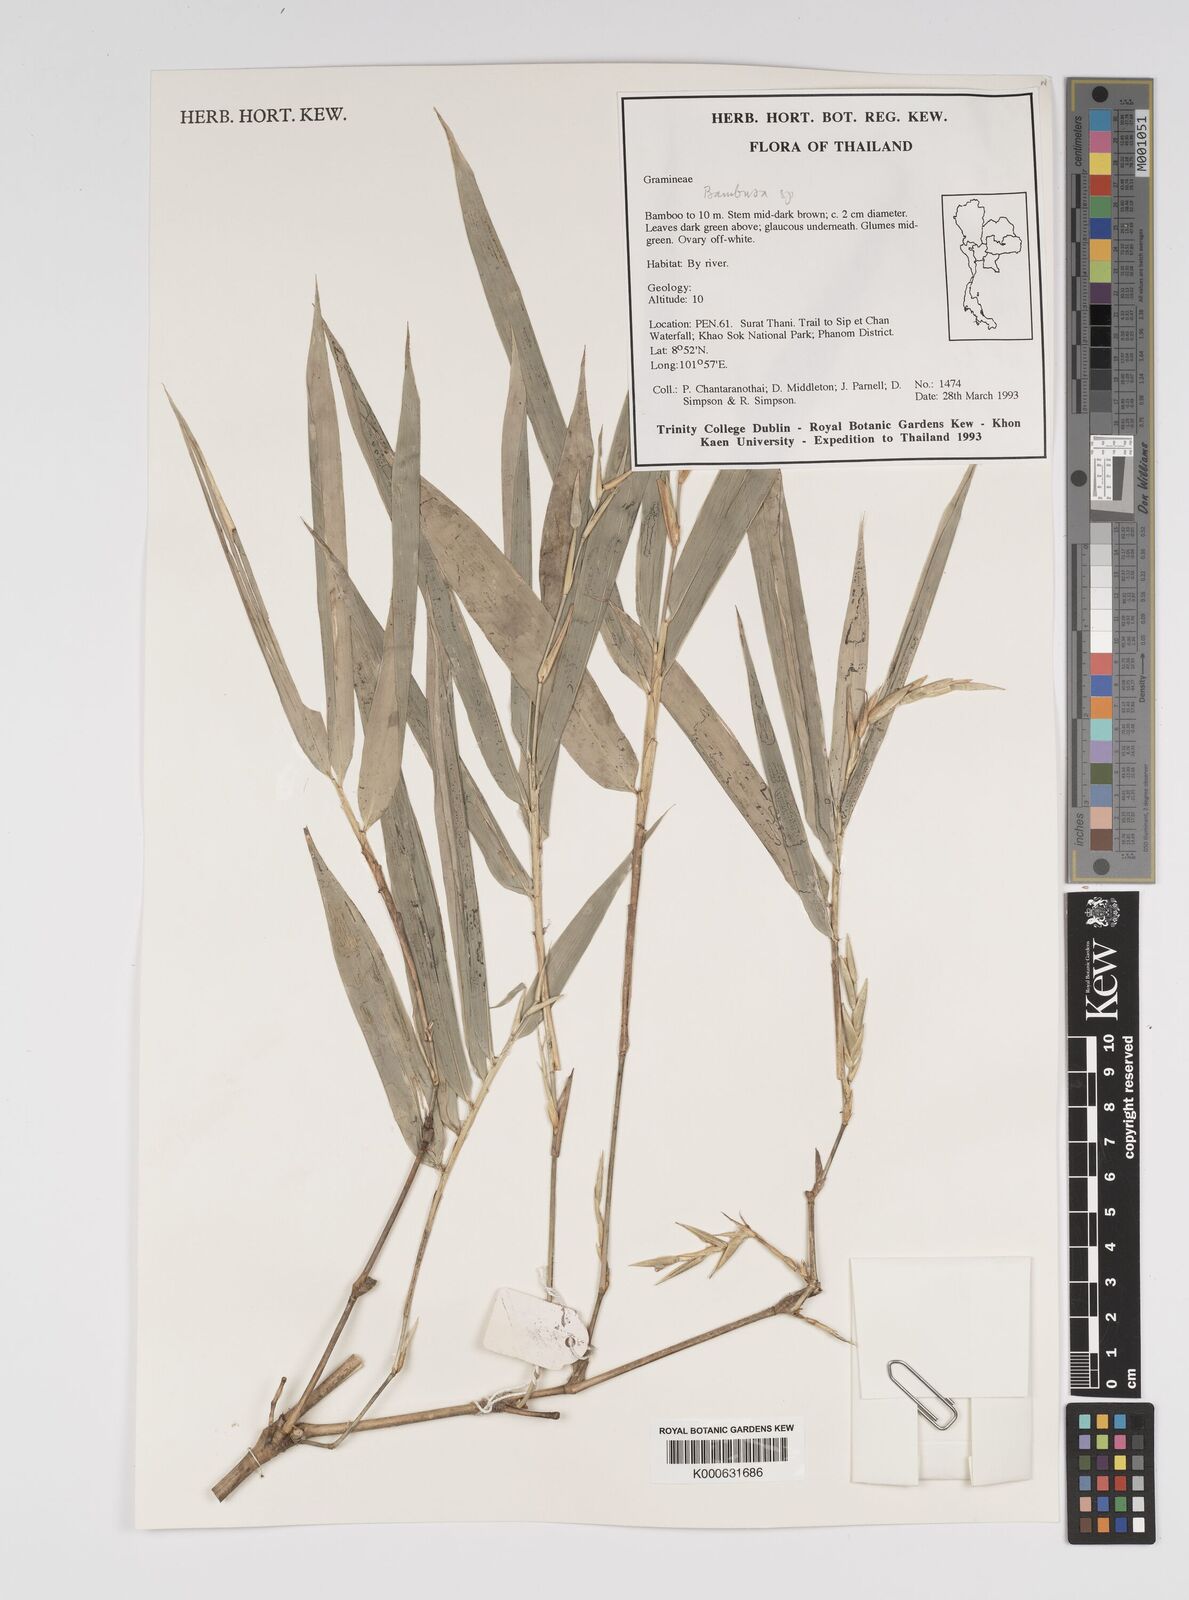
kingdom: Plantae
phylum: Tracheophyta
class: Liliopsida
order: Poales
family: Poaceae
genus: Bambusa
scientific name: Bambusa
